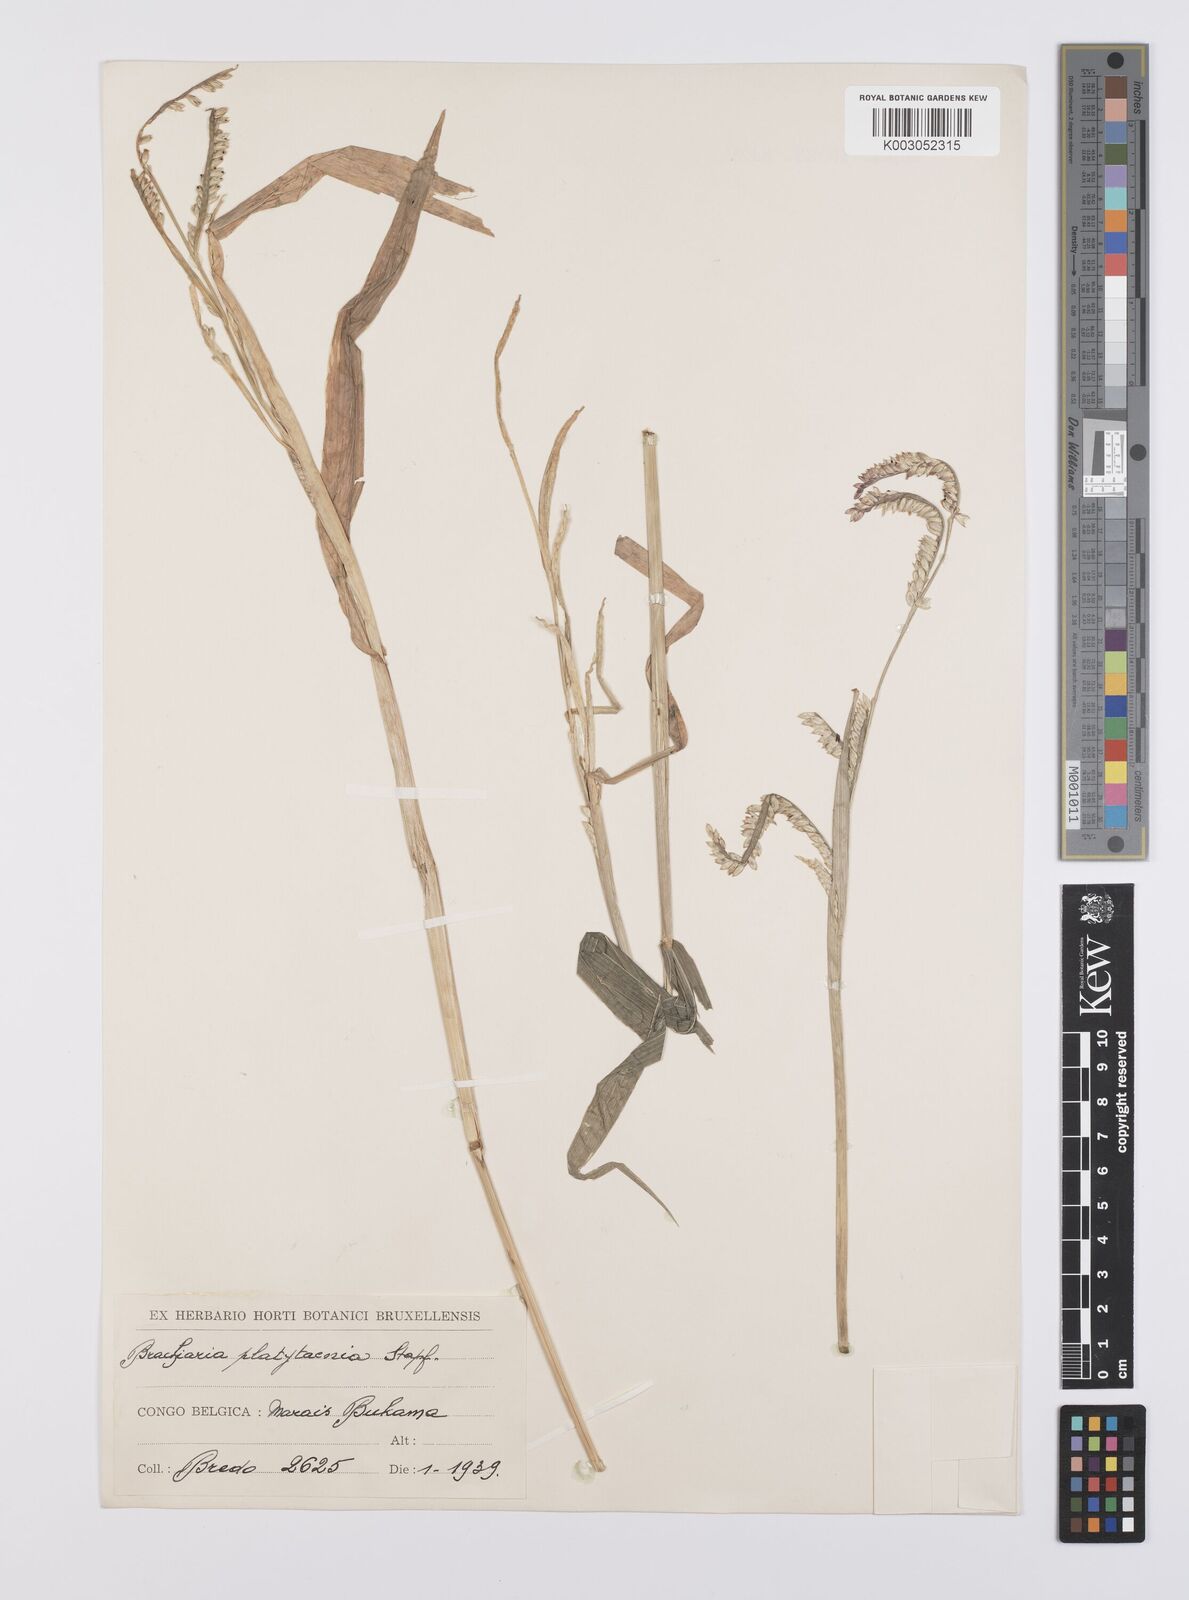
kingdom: Plantae
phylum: Tracheophyta
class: Liliopsida
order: Poales
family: Poaceae
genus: Urochloa
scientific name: Urochloa oligobrachiata
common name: Weak signalgrass
